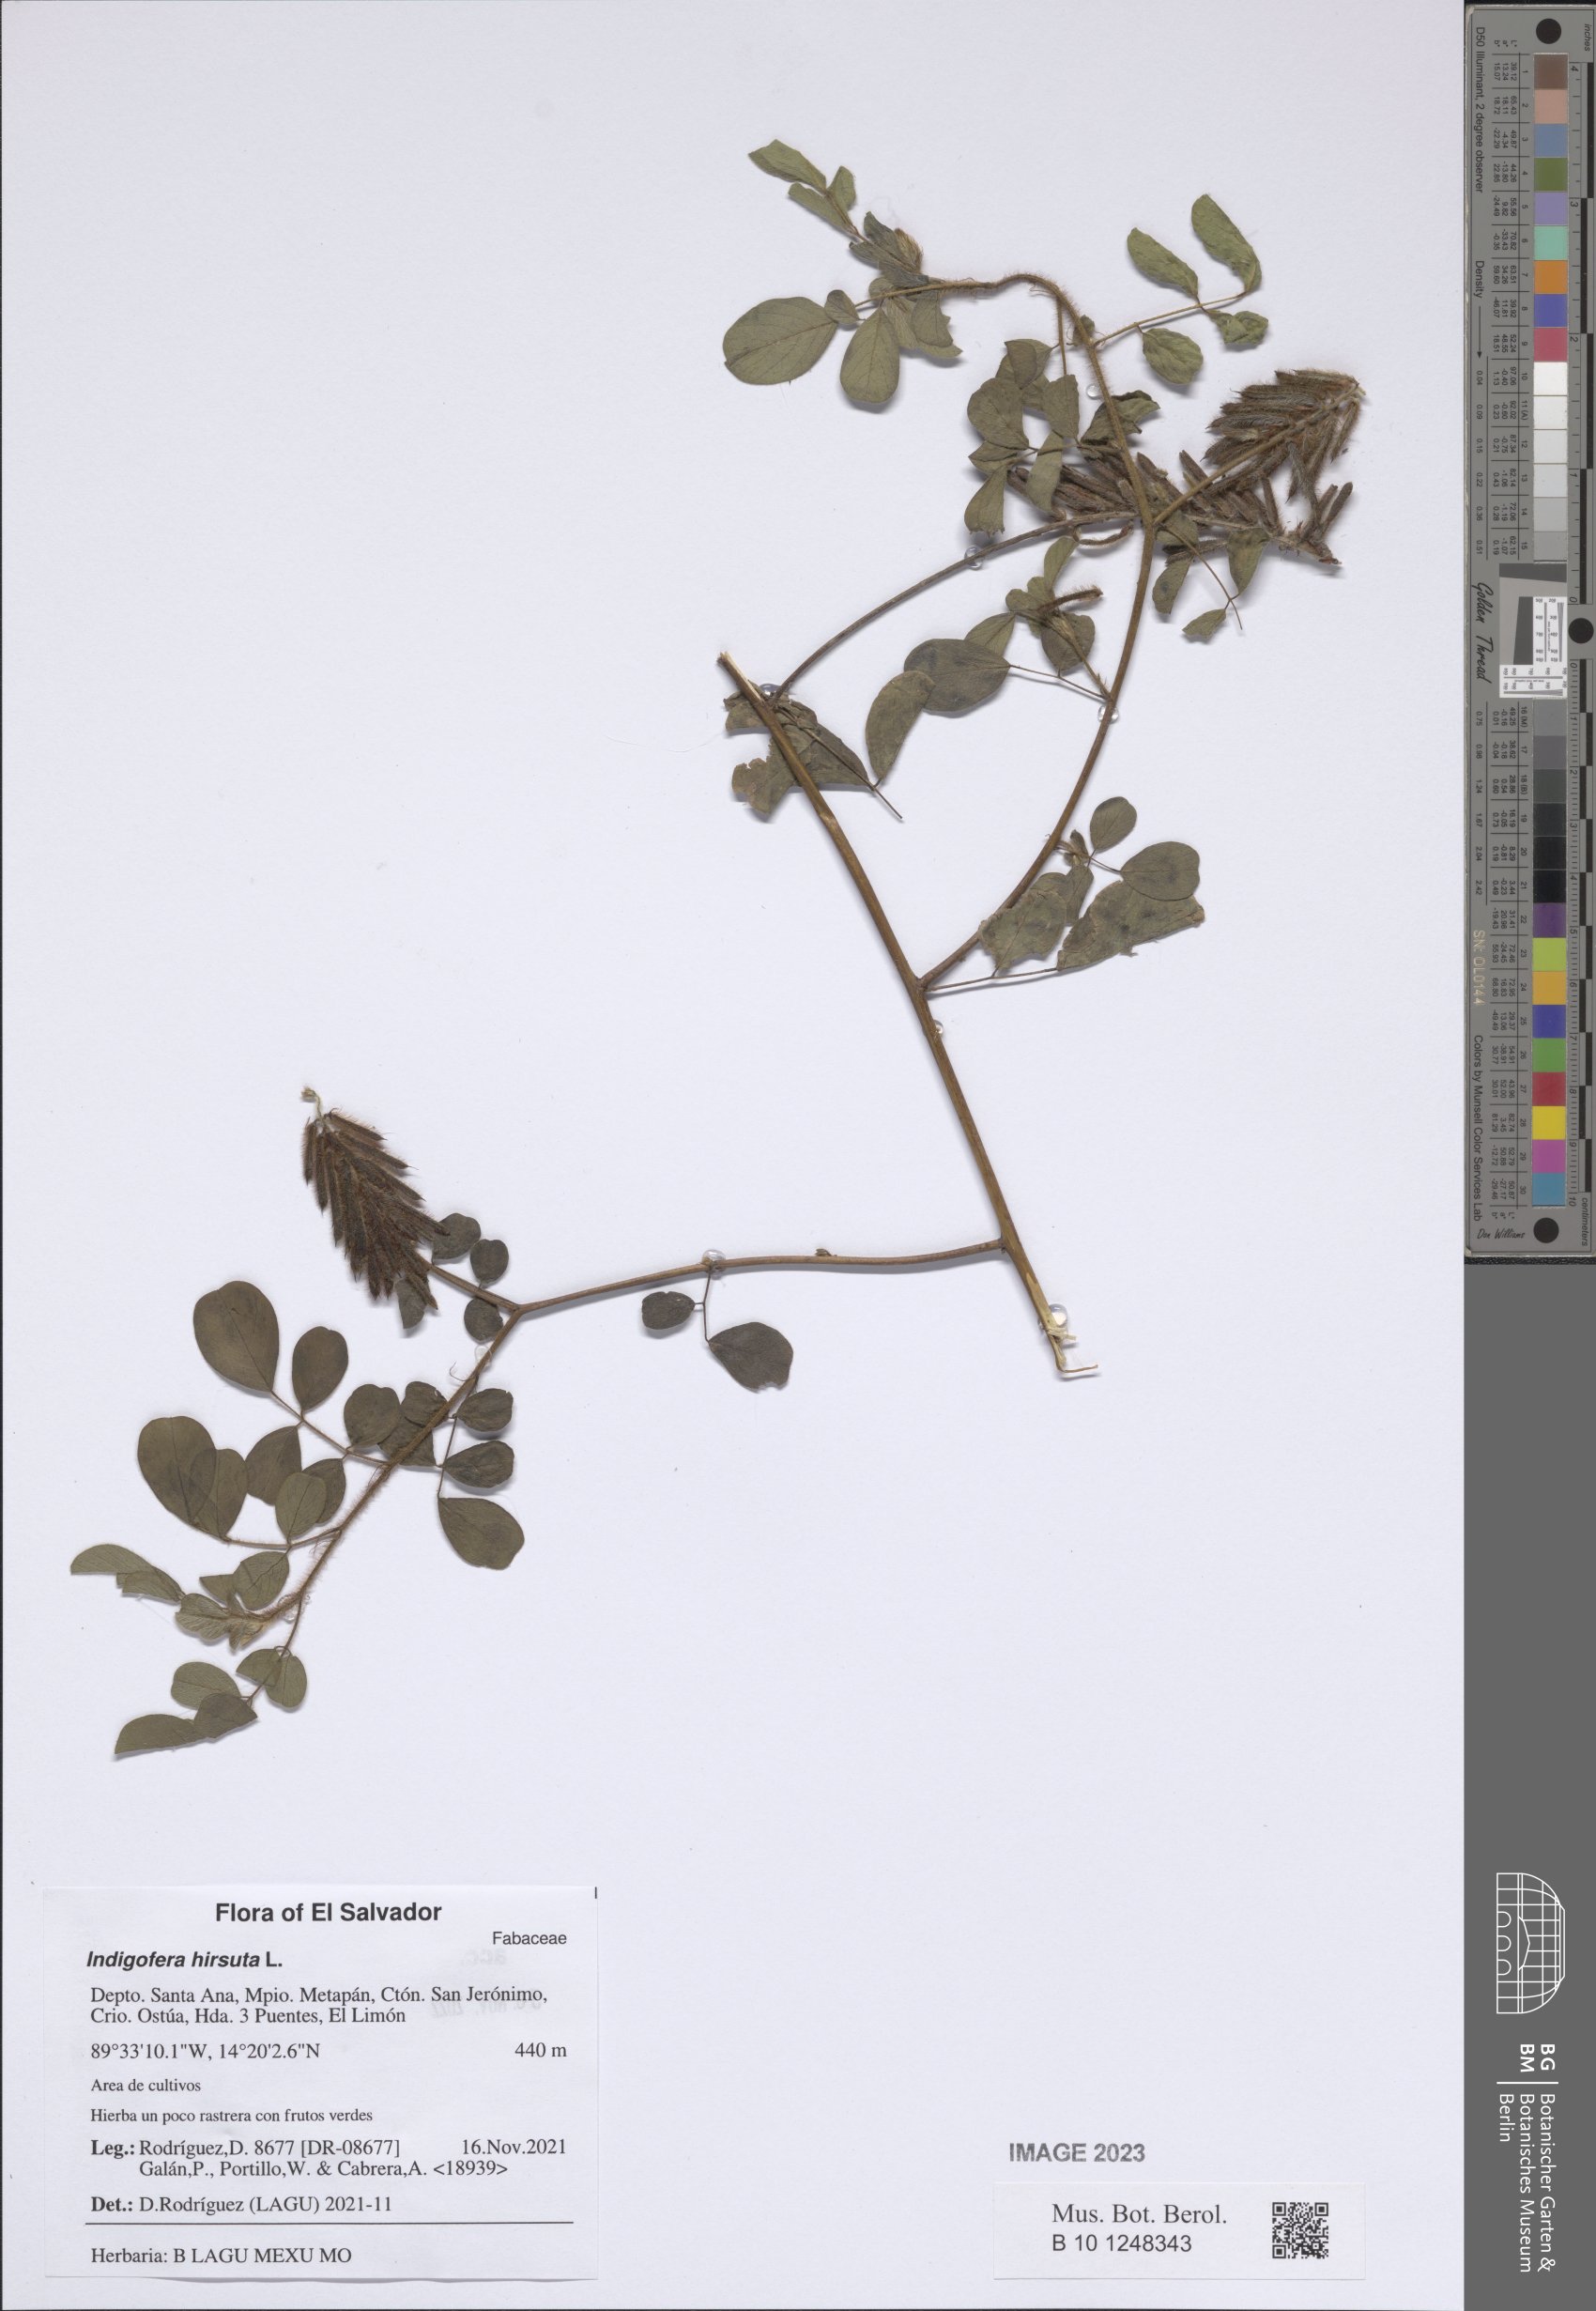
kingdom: Plantae
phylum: Tracheophyta
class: Magnoliopsida
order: Fabales
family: Fabaceae
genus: Indigofera
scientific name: Indigofera hirsuta
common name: Hairy indigo
